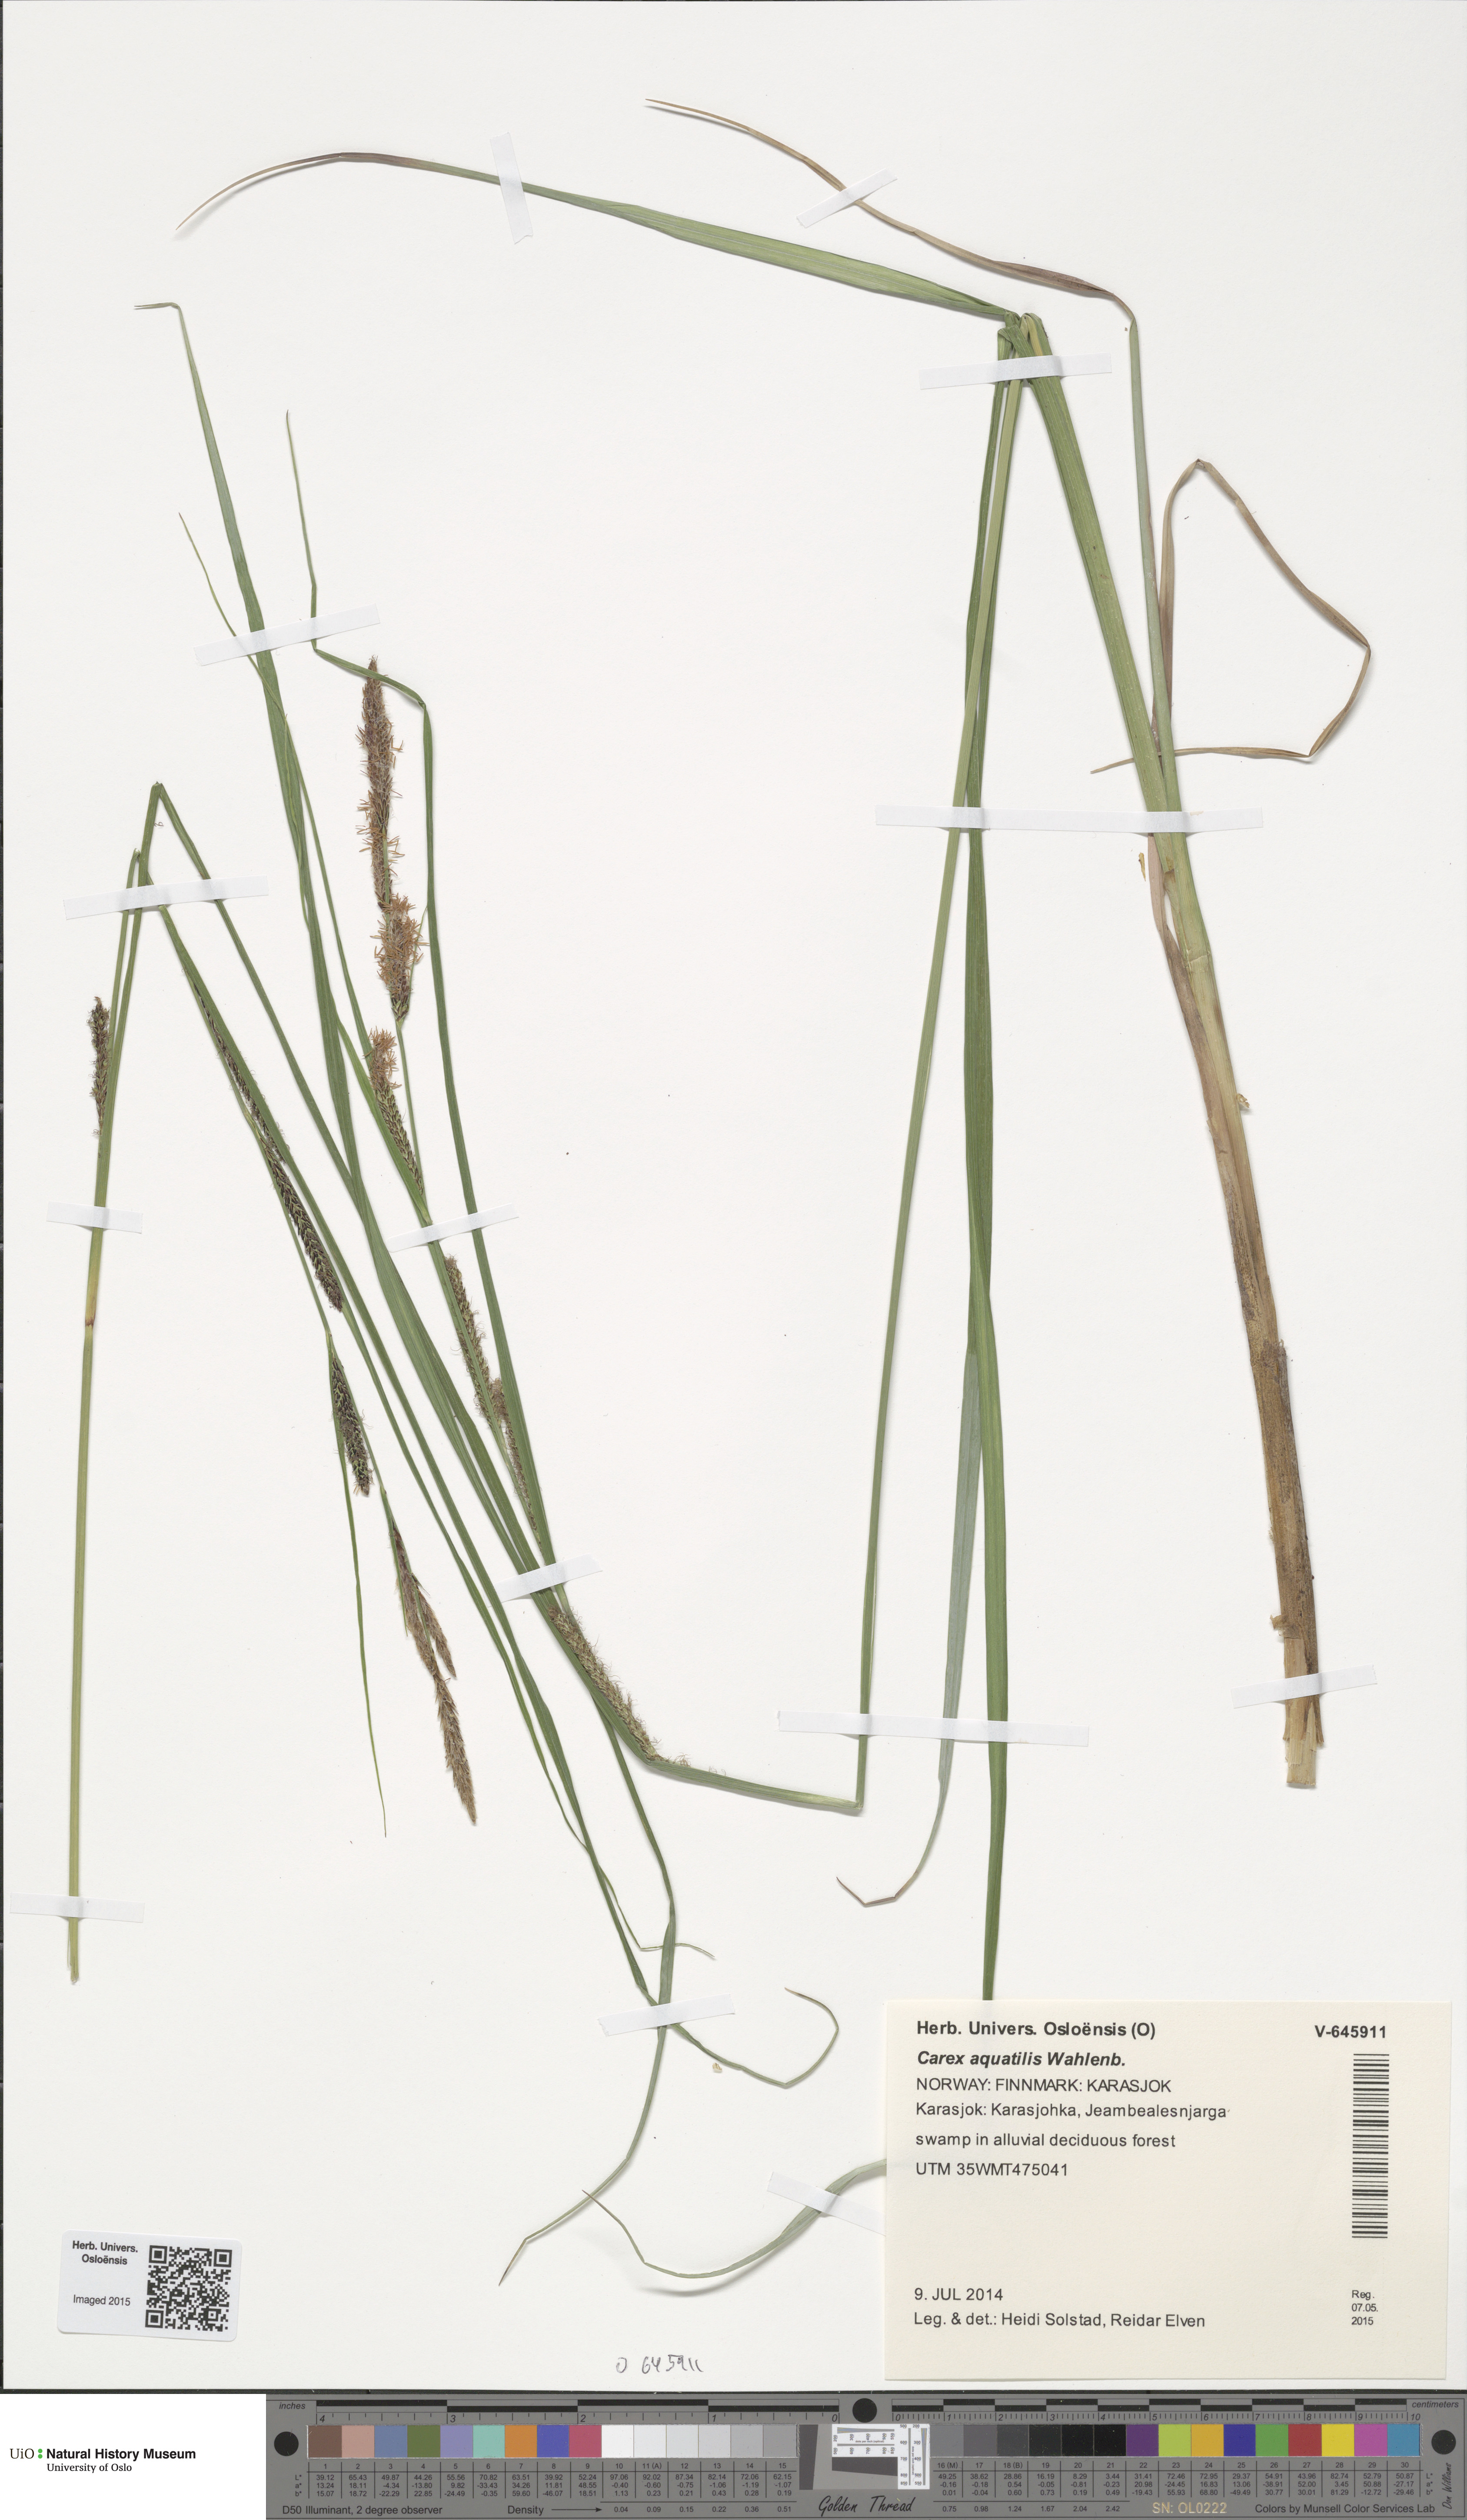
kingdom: Plantae
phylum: Tracheophyta
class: Liliopsida
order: Poales
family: Cyperaceae
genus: Carex
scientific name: Carex aquatilis
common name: Water sedge
